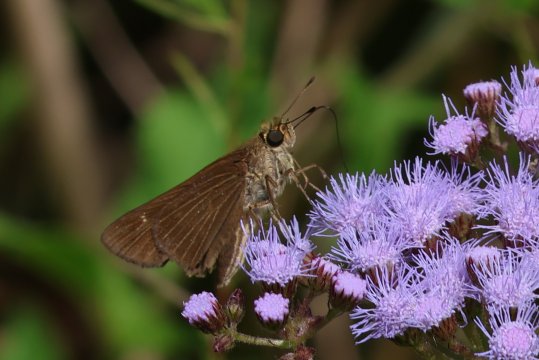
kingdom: Animalia
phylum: Arthropoda
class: Insecta
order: Lepidoptera
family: Hesperiidae
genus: Panoquina
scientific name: Panoquina ocola
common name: Ocola Skipper
